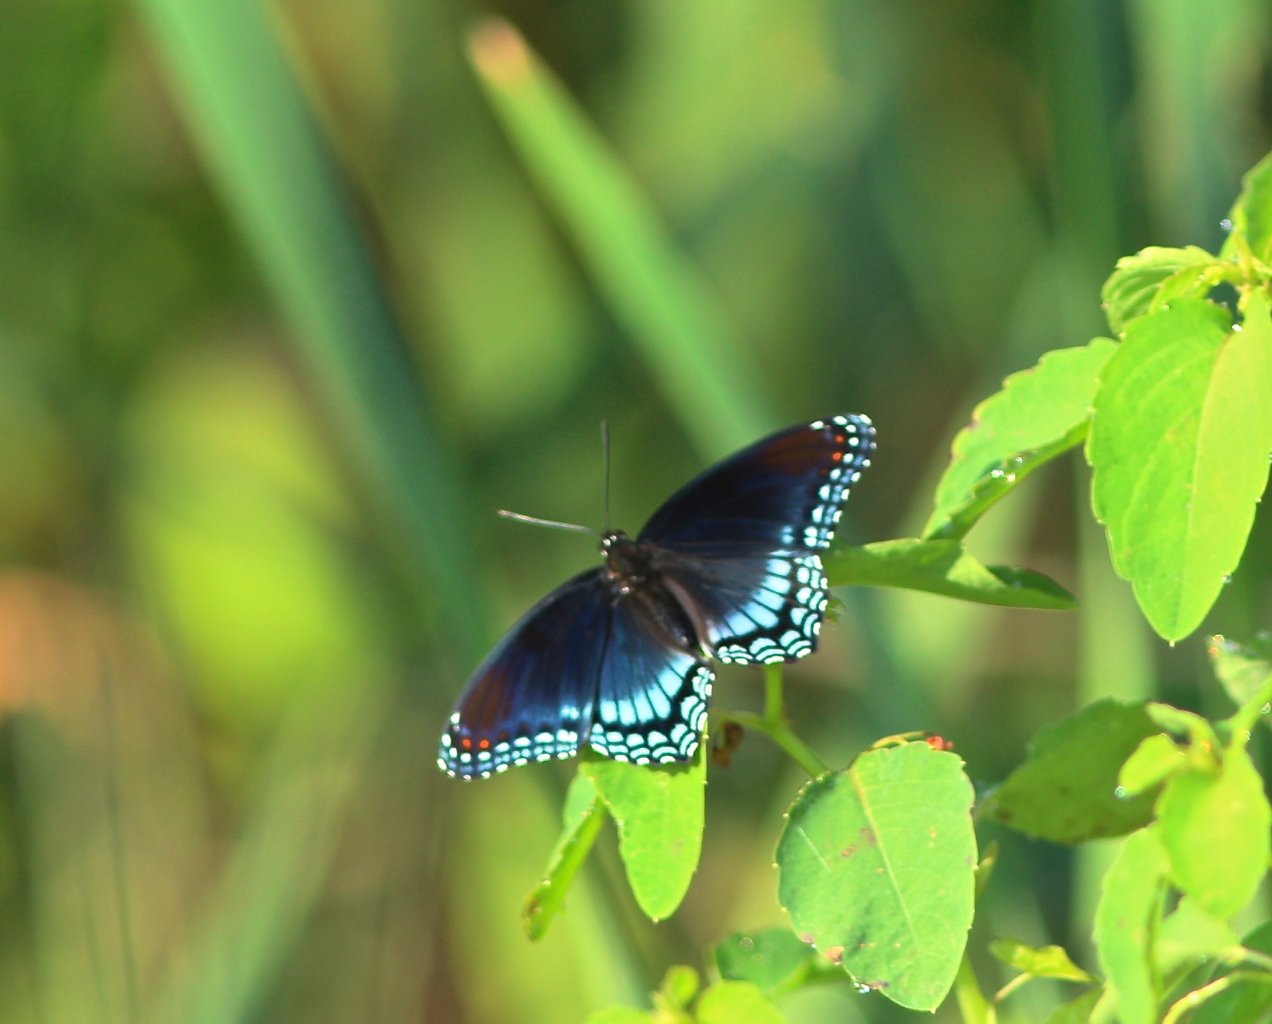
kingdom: Animalia
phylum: Arthropoda
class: Insecta
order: Lepidoptera
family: Nymphalidae
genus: Limenitis
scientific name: Limenitis astyanax
